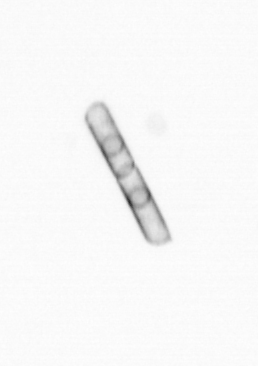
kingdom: Chromista
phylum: Ochrophyta
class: Bacillariophyceae
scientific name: Bacillariophyceae
